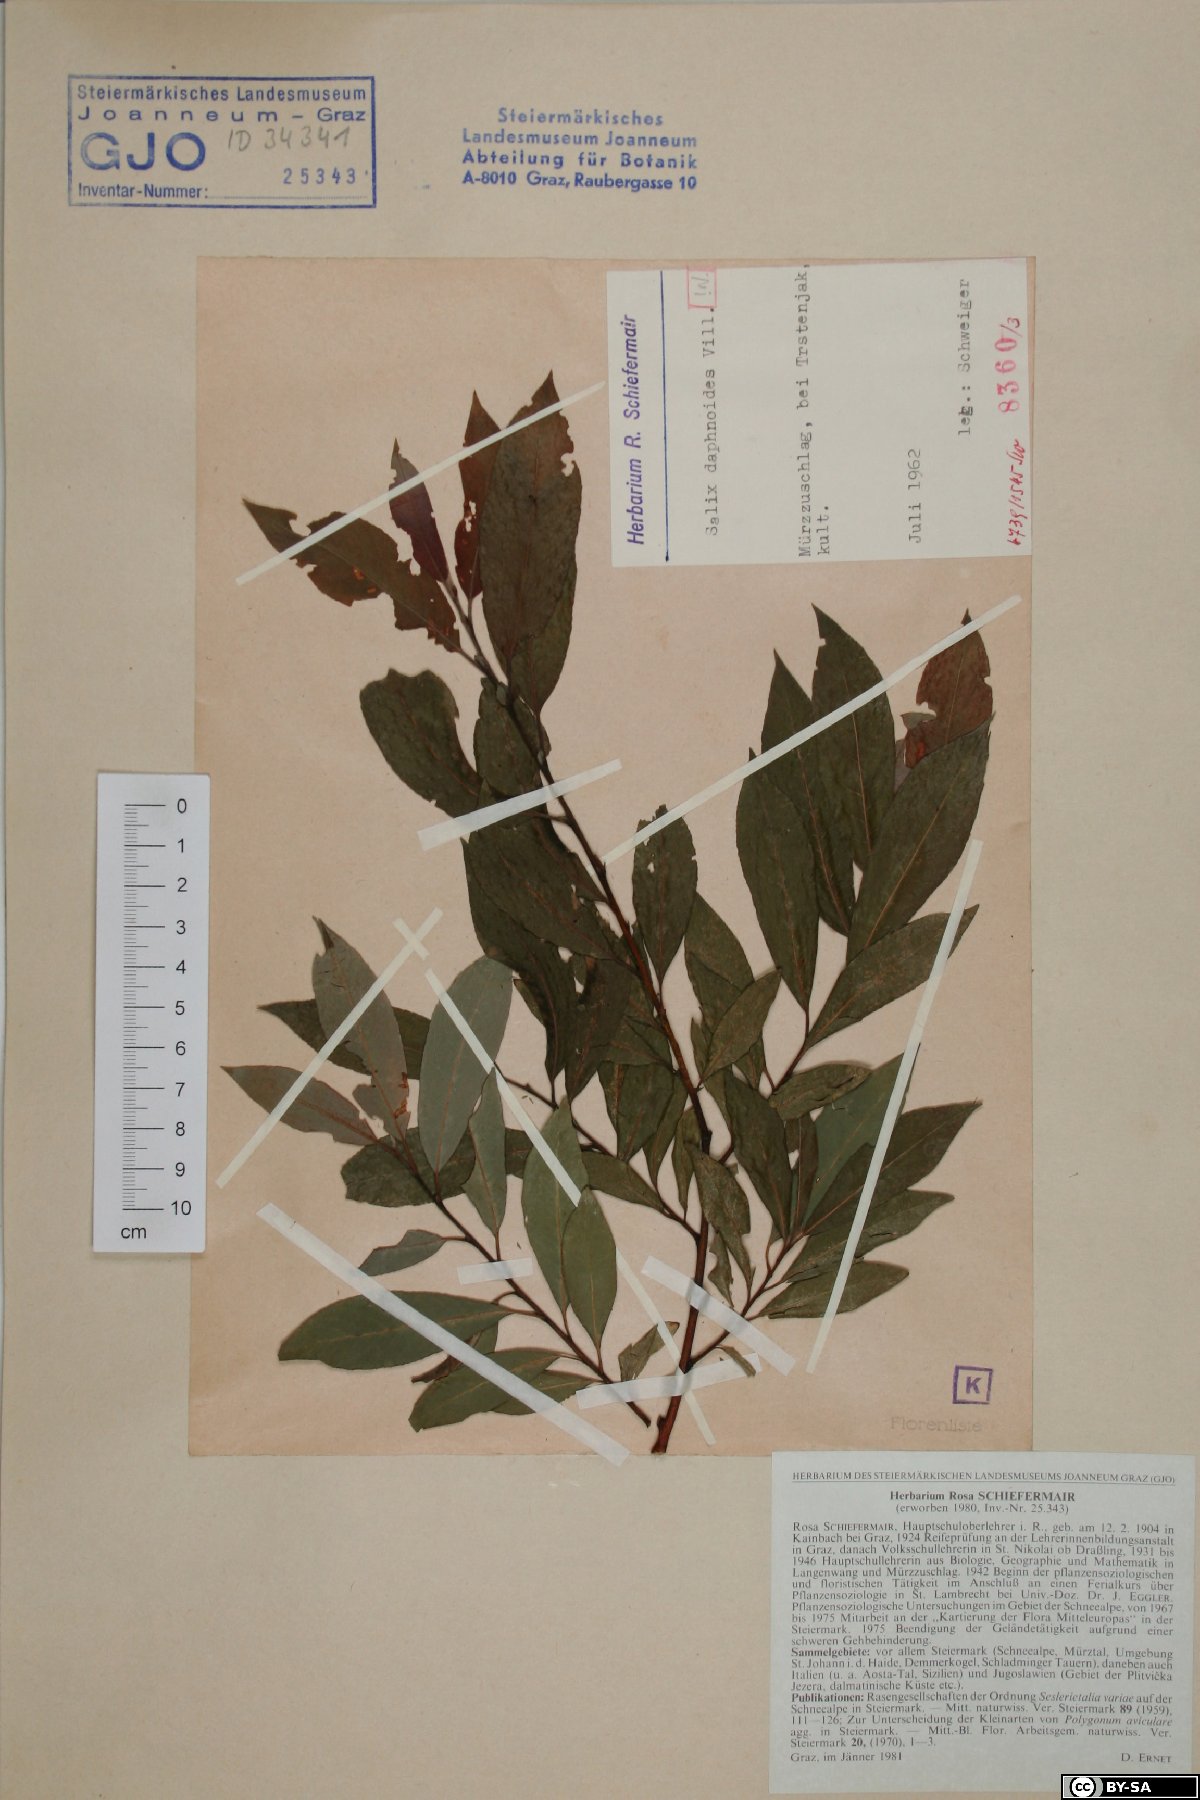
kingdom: Plantae
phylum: Tracheophyta
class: Magnoliopsida
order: Malpighiales
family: Salicaceae
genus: Salix
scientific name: Salix daphnoides
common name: European violet-willow
